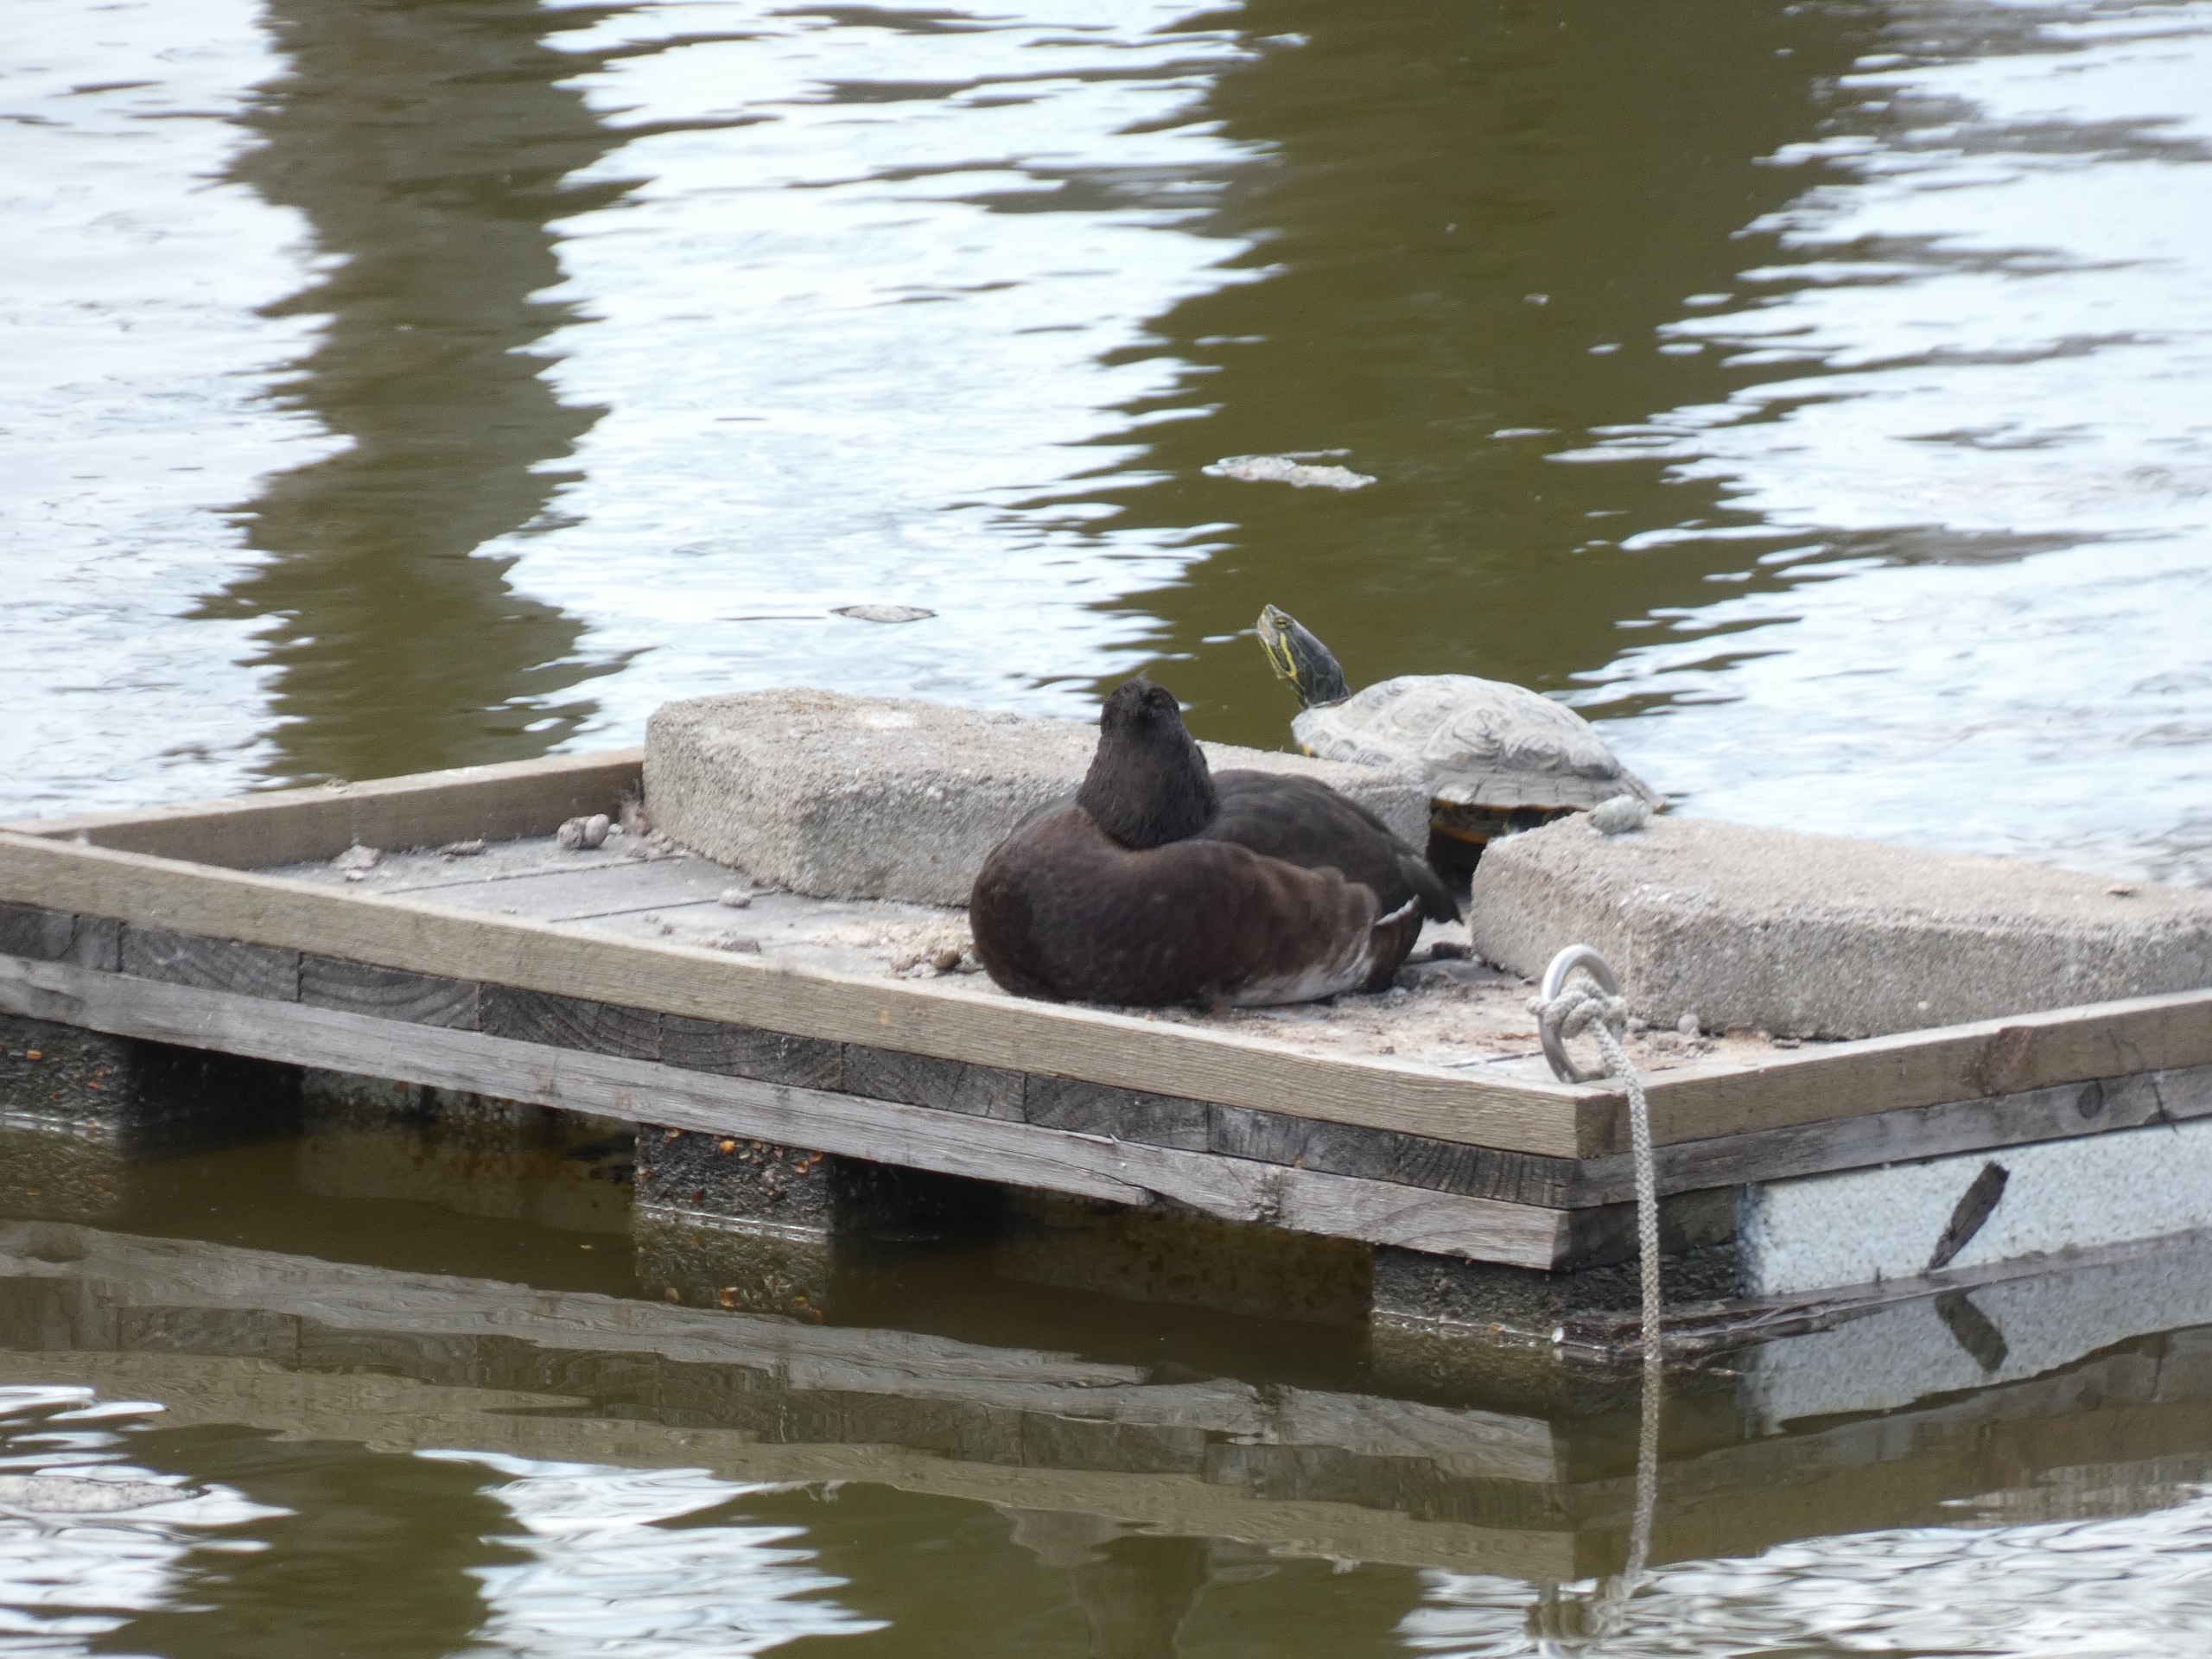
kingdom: Animalia
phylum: Chordata
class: Testudines
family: Emydidae
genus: Trachemys
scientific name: Trachemys scripta
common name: Guløret terrapin
